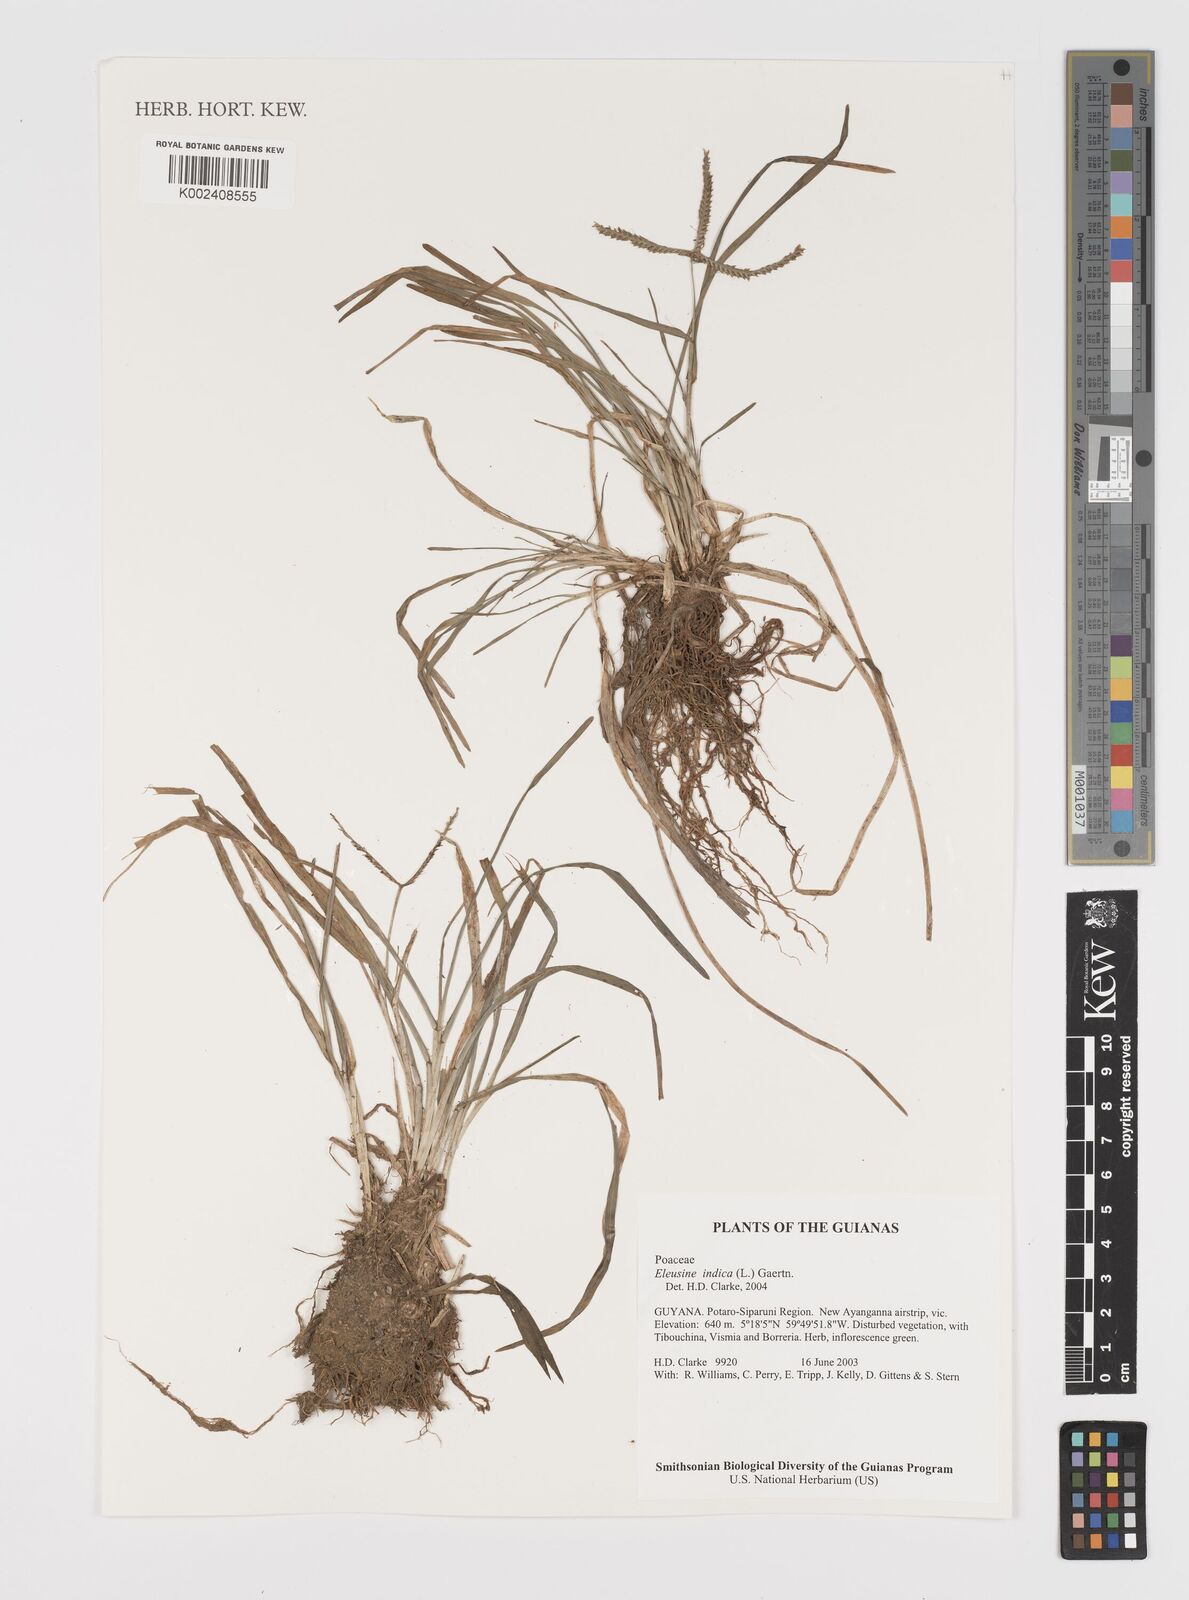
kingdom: Plantae
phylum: Tracheophyta
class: Liliopsida
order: Poales
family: Poaceae
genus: Eleusine
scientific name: Eleusine indica
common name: Yard-grass
